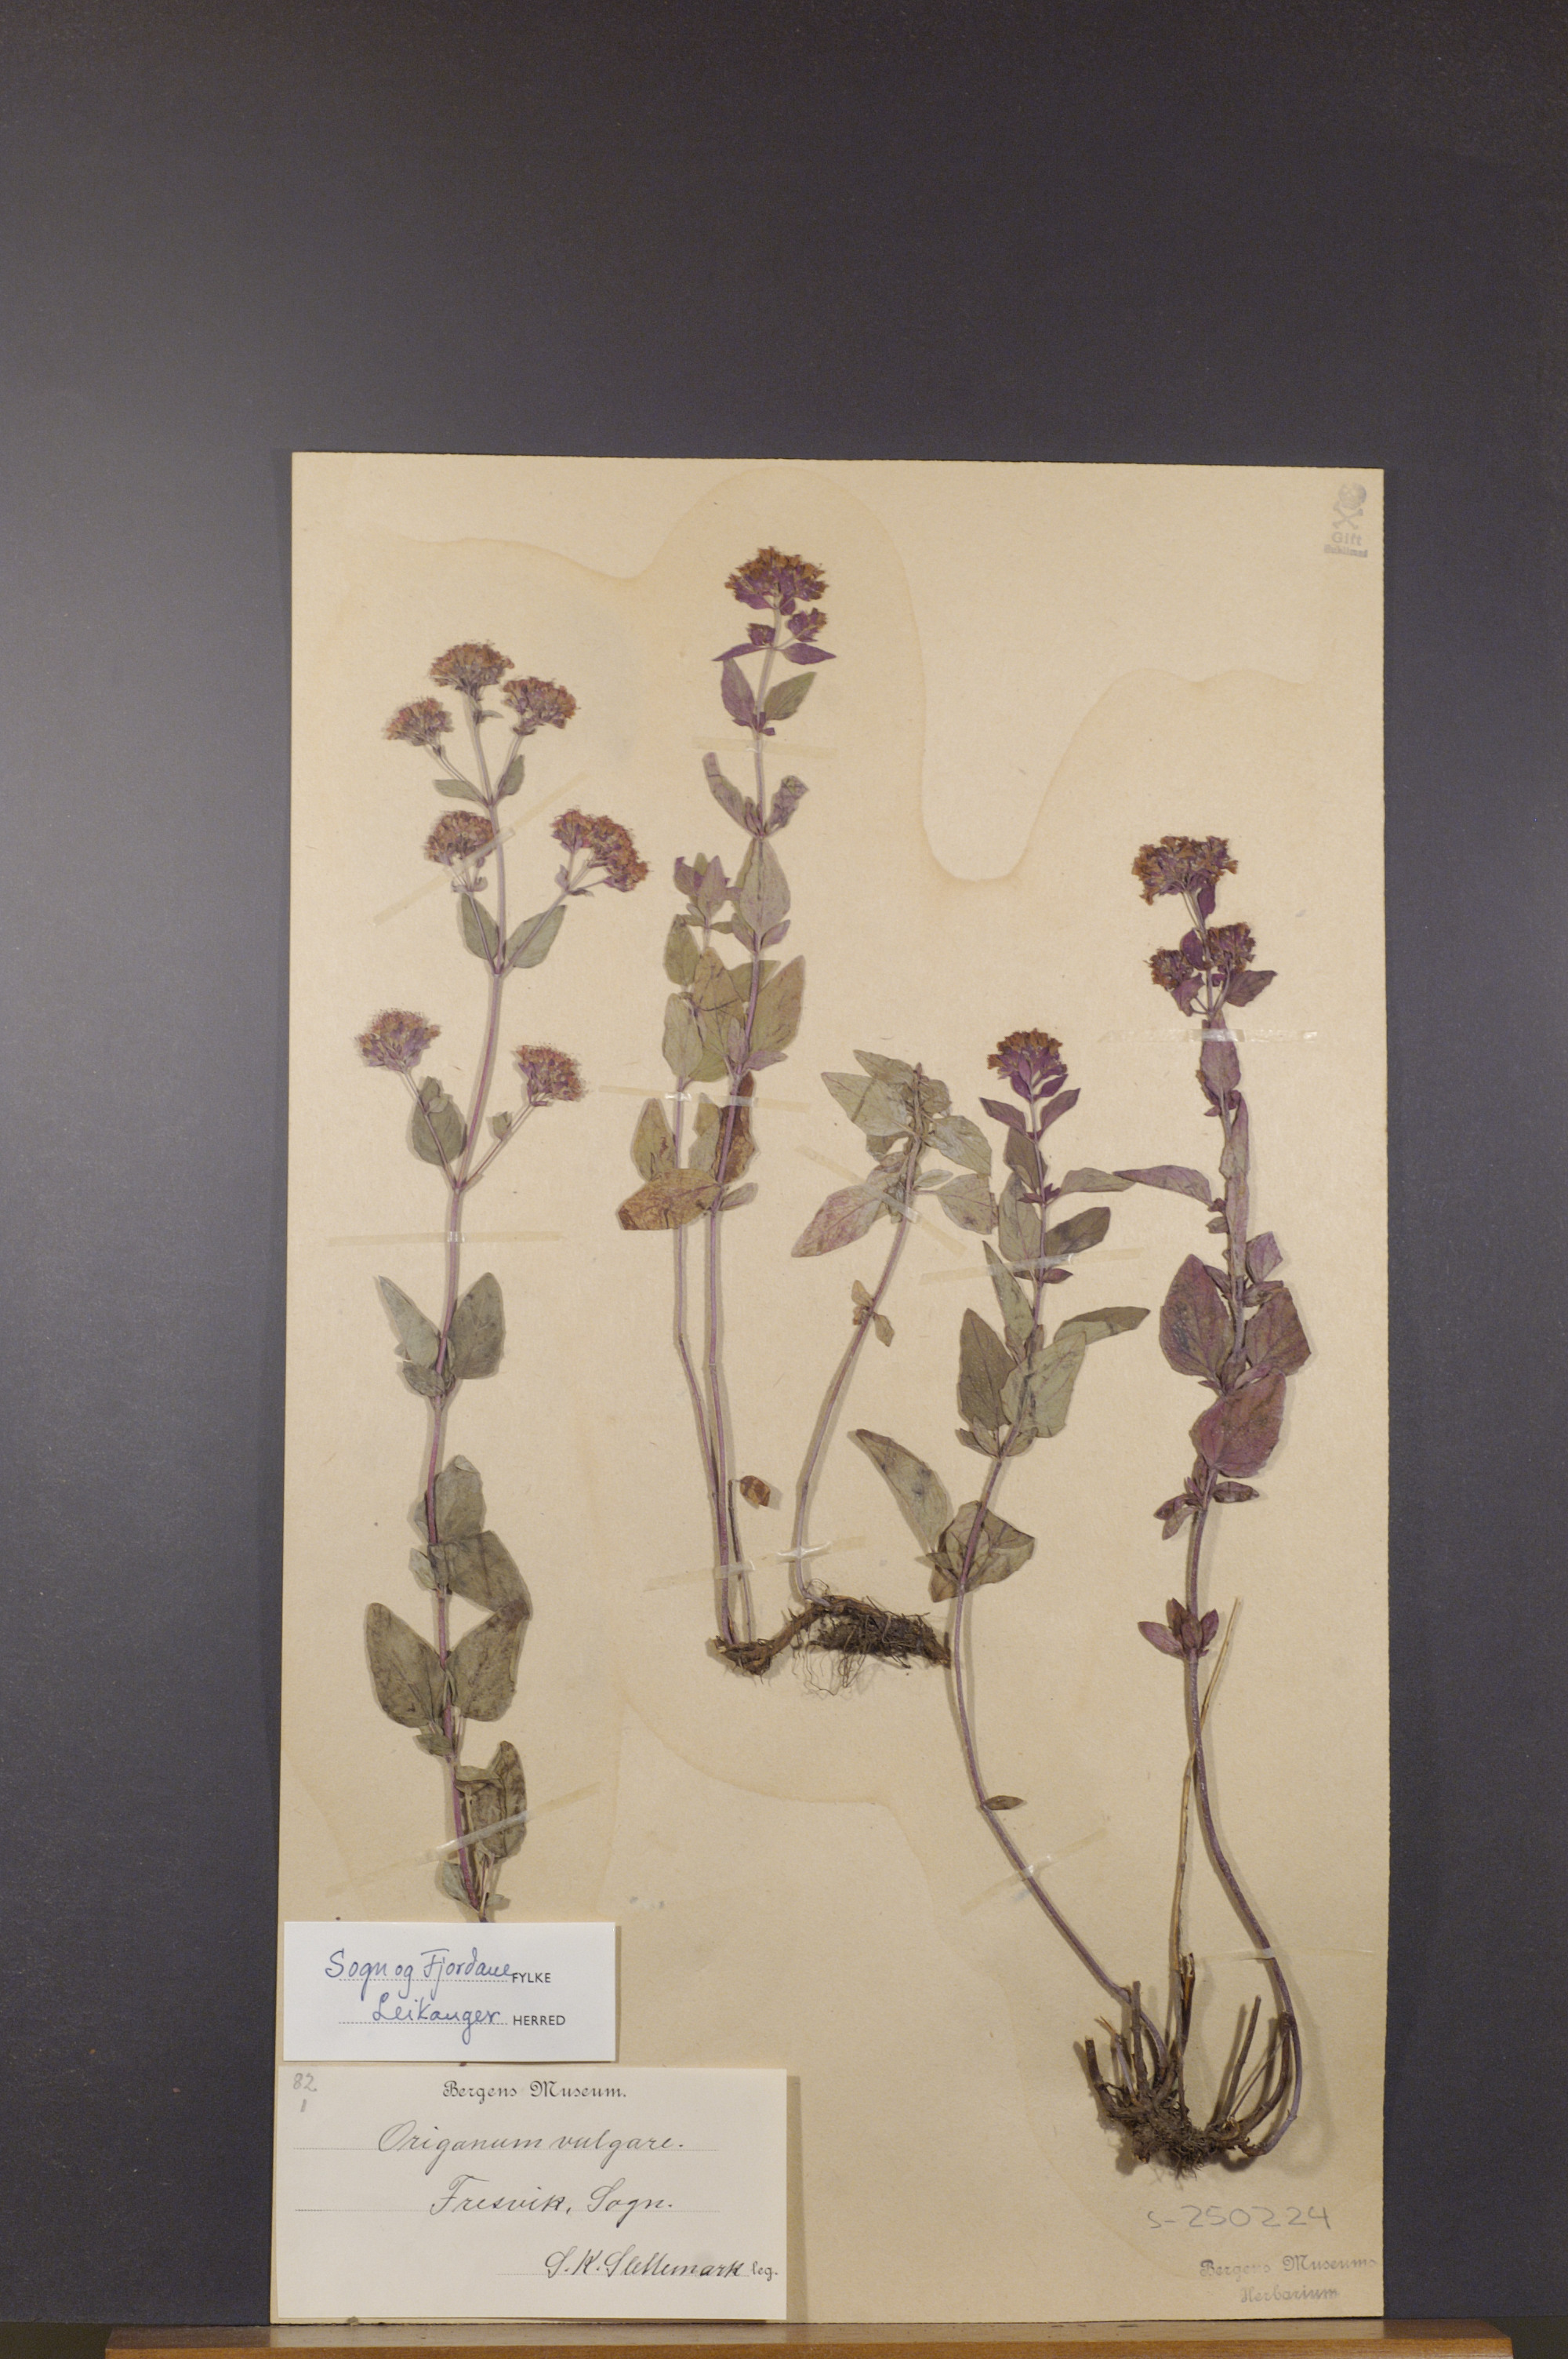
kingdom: Plantae
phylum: Tracheophyta
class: Magnoliopsida
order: Lamiales
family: Lamiaceae
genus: Origanum
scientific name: Origanum vulgare
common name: Wild marjoram
